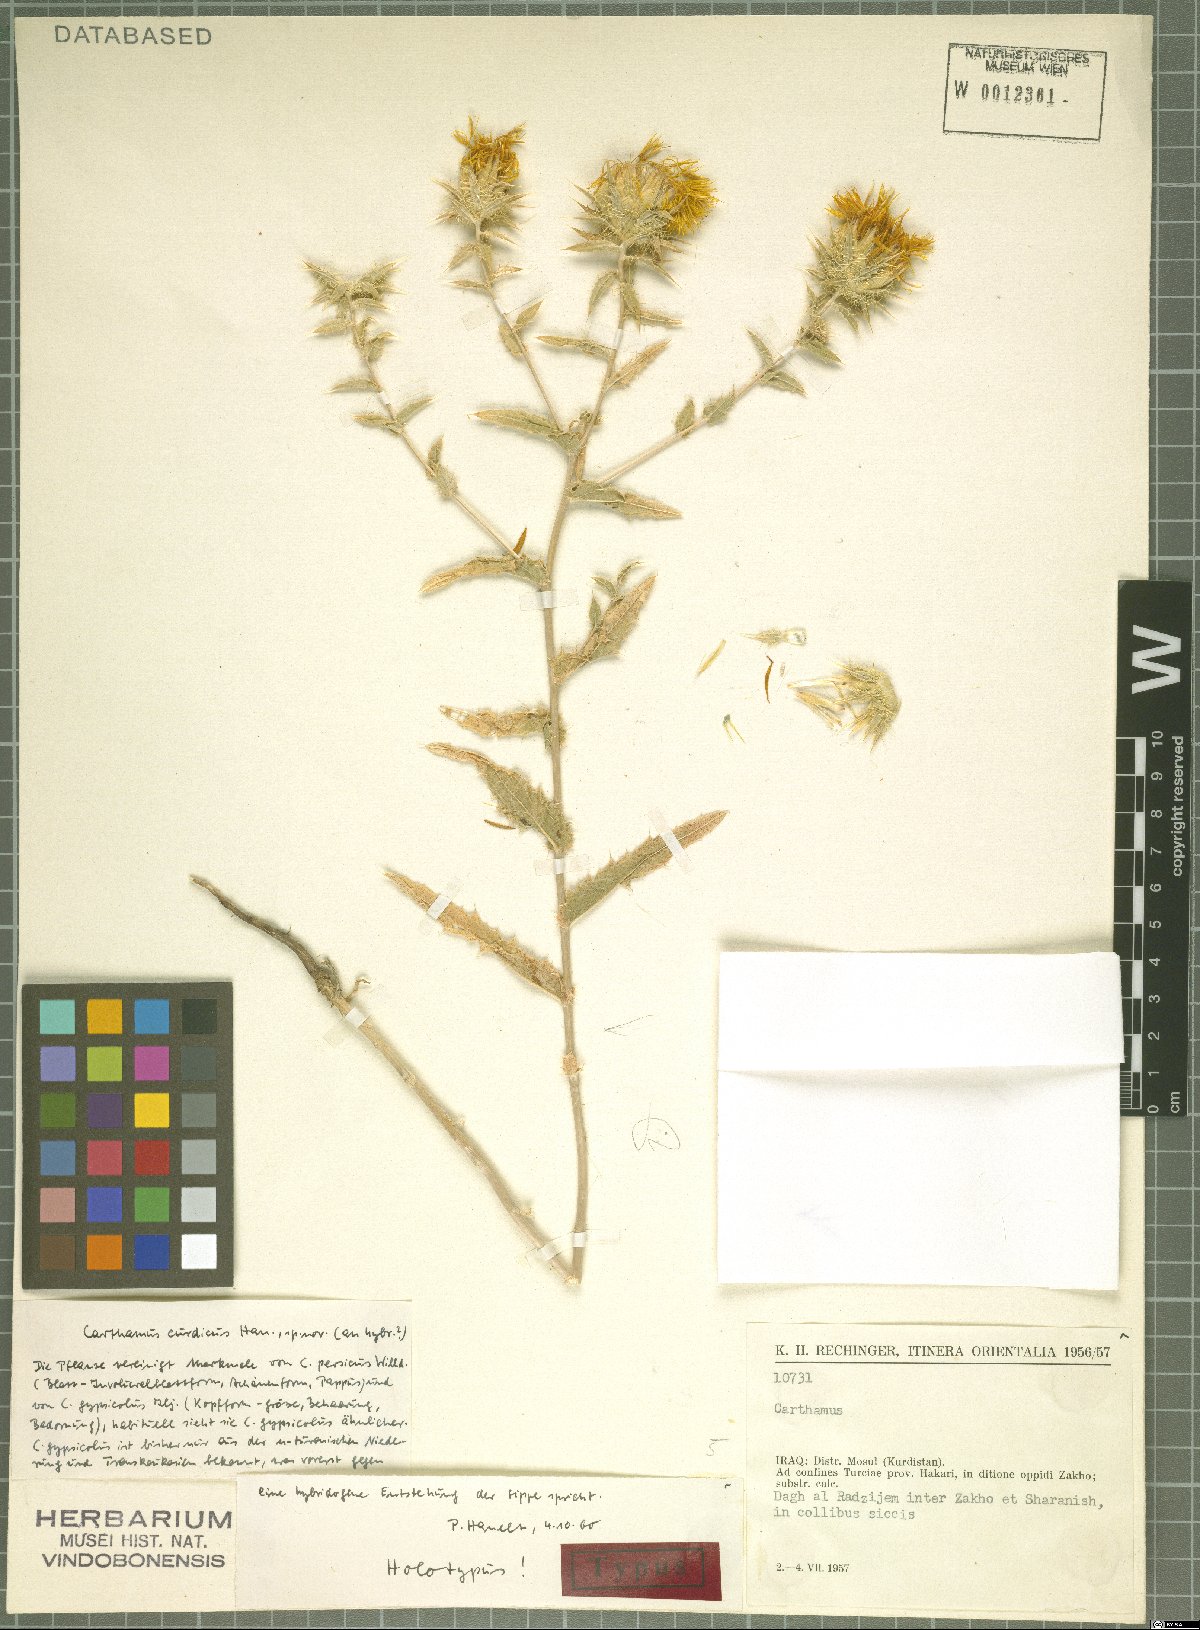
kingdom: Plantae
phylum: Tracheophyta
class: Magnoliopsida
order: Asterales
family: Asteraceae
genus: Carthamus
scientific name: Carthamus curdicus
